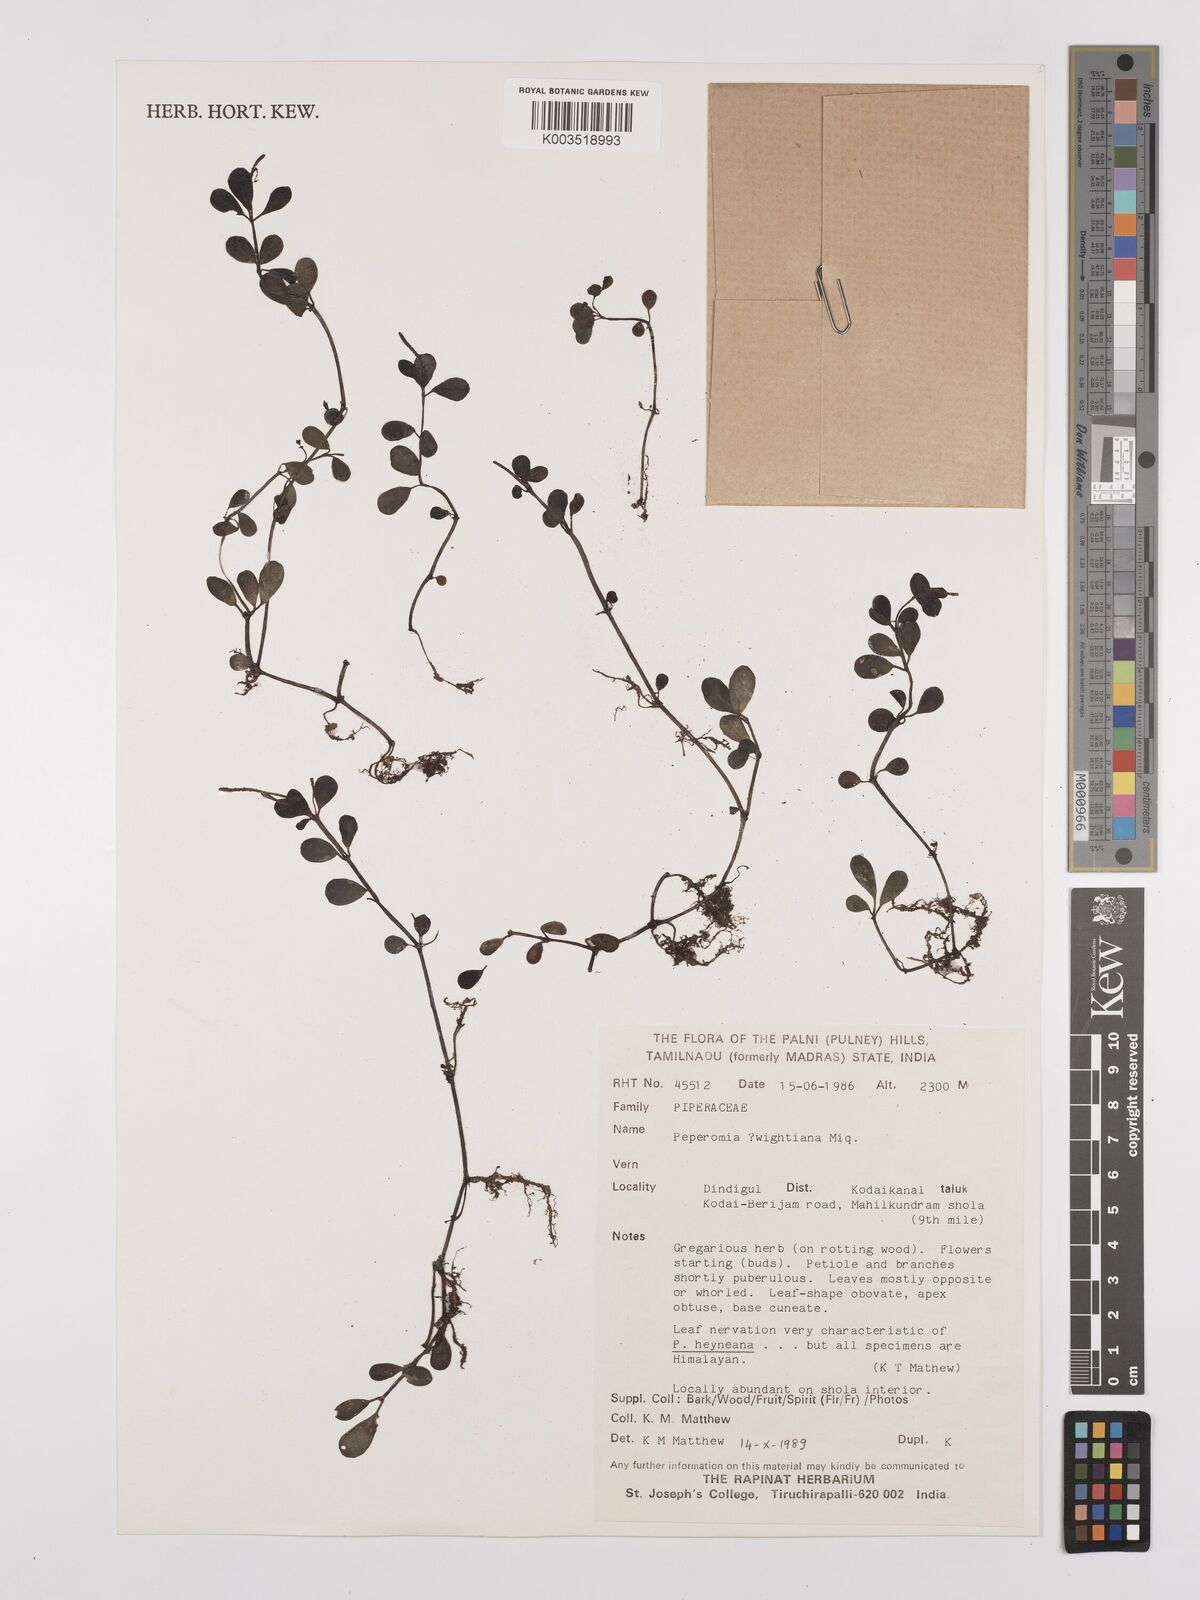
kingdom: Plantae
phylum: Tracheophyta
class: Magnoliopsida
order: Piperales
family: Piperaceae
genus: Peperomia
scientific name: Peperomia wightiana
